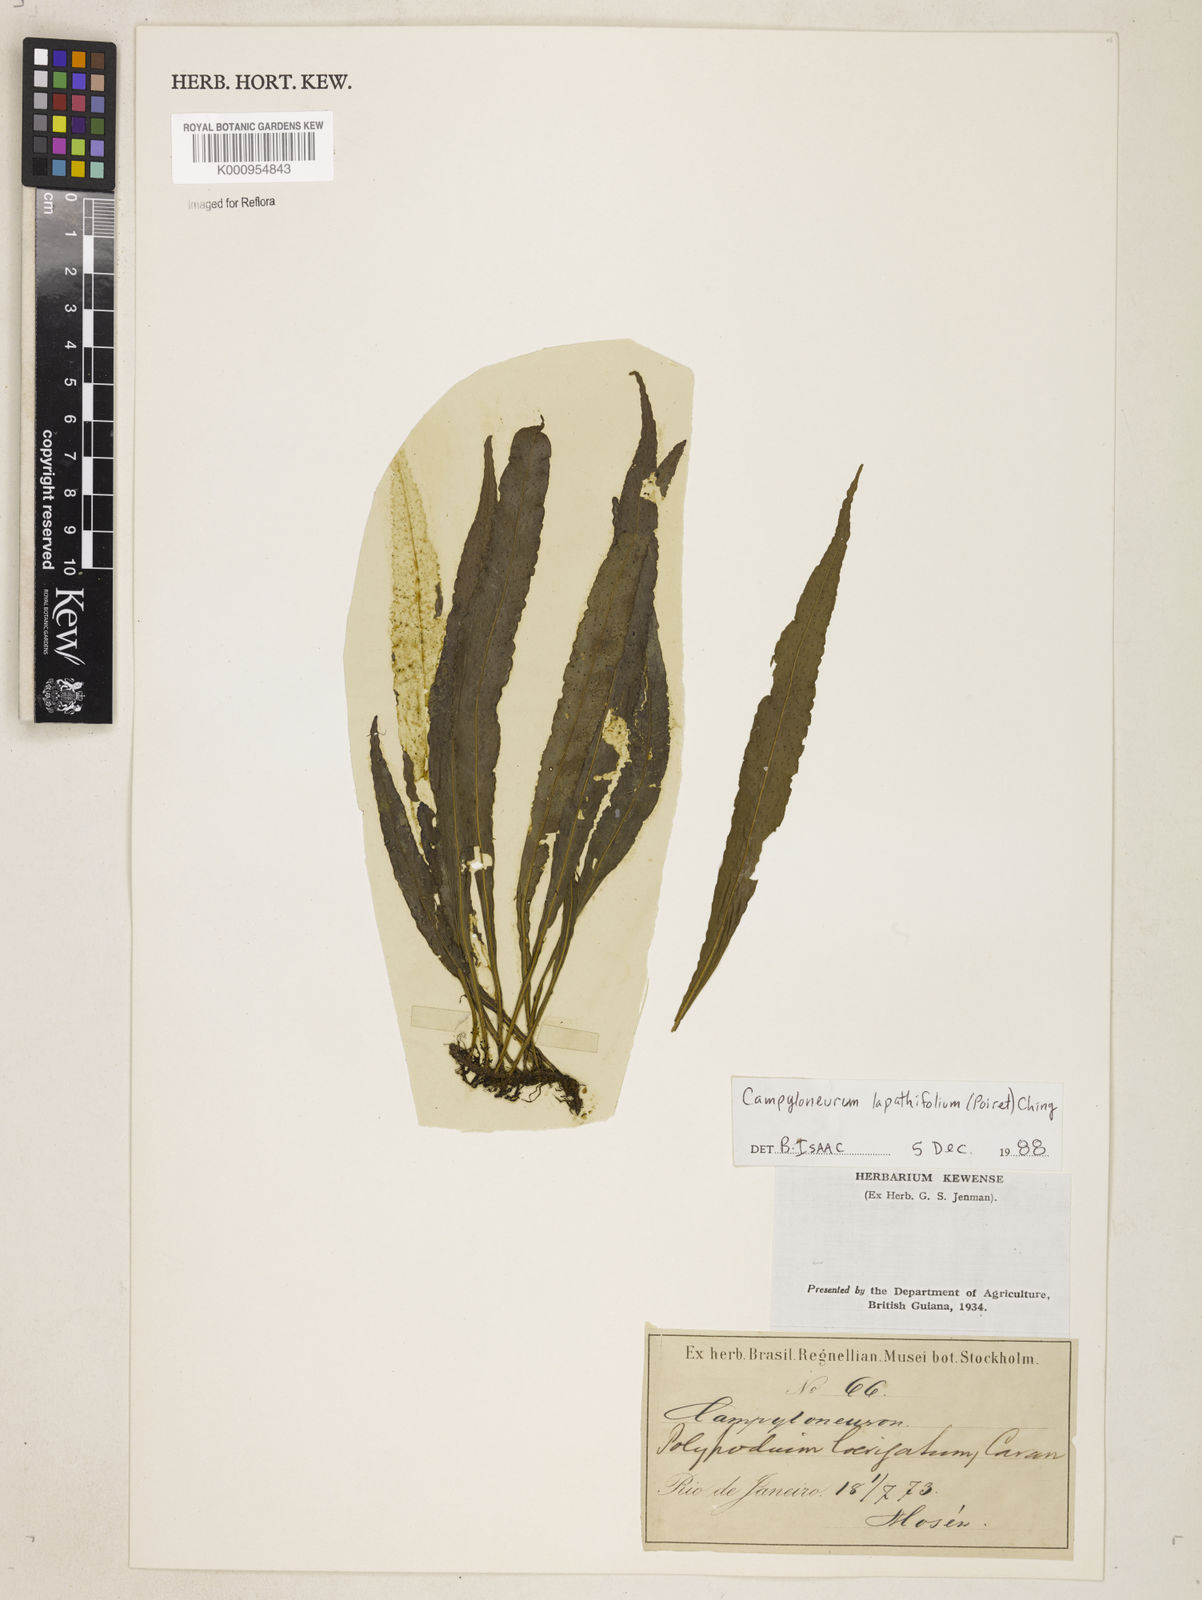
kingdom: Plantae
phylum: Tracheophyta
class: Polypodiopsida
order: Polypodiales
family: Polypodiaceae
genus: Campyloneurum
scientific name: Campyloneurum repens
